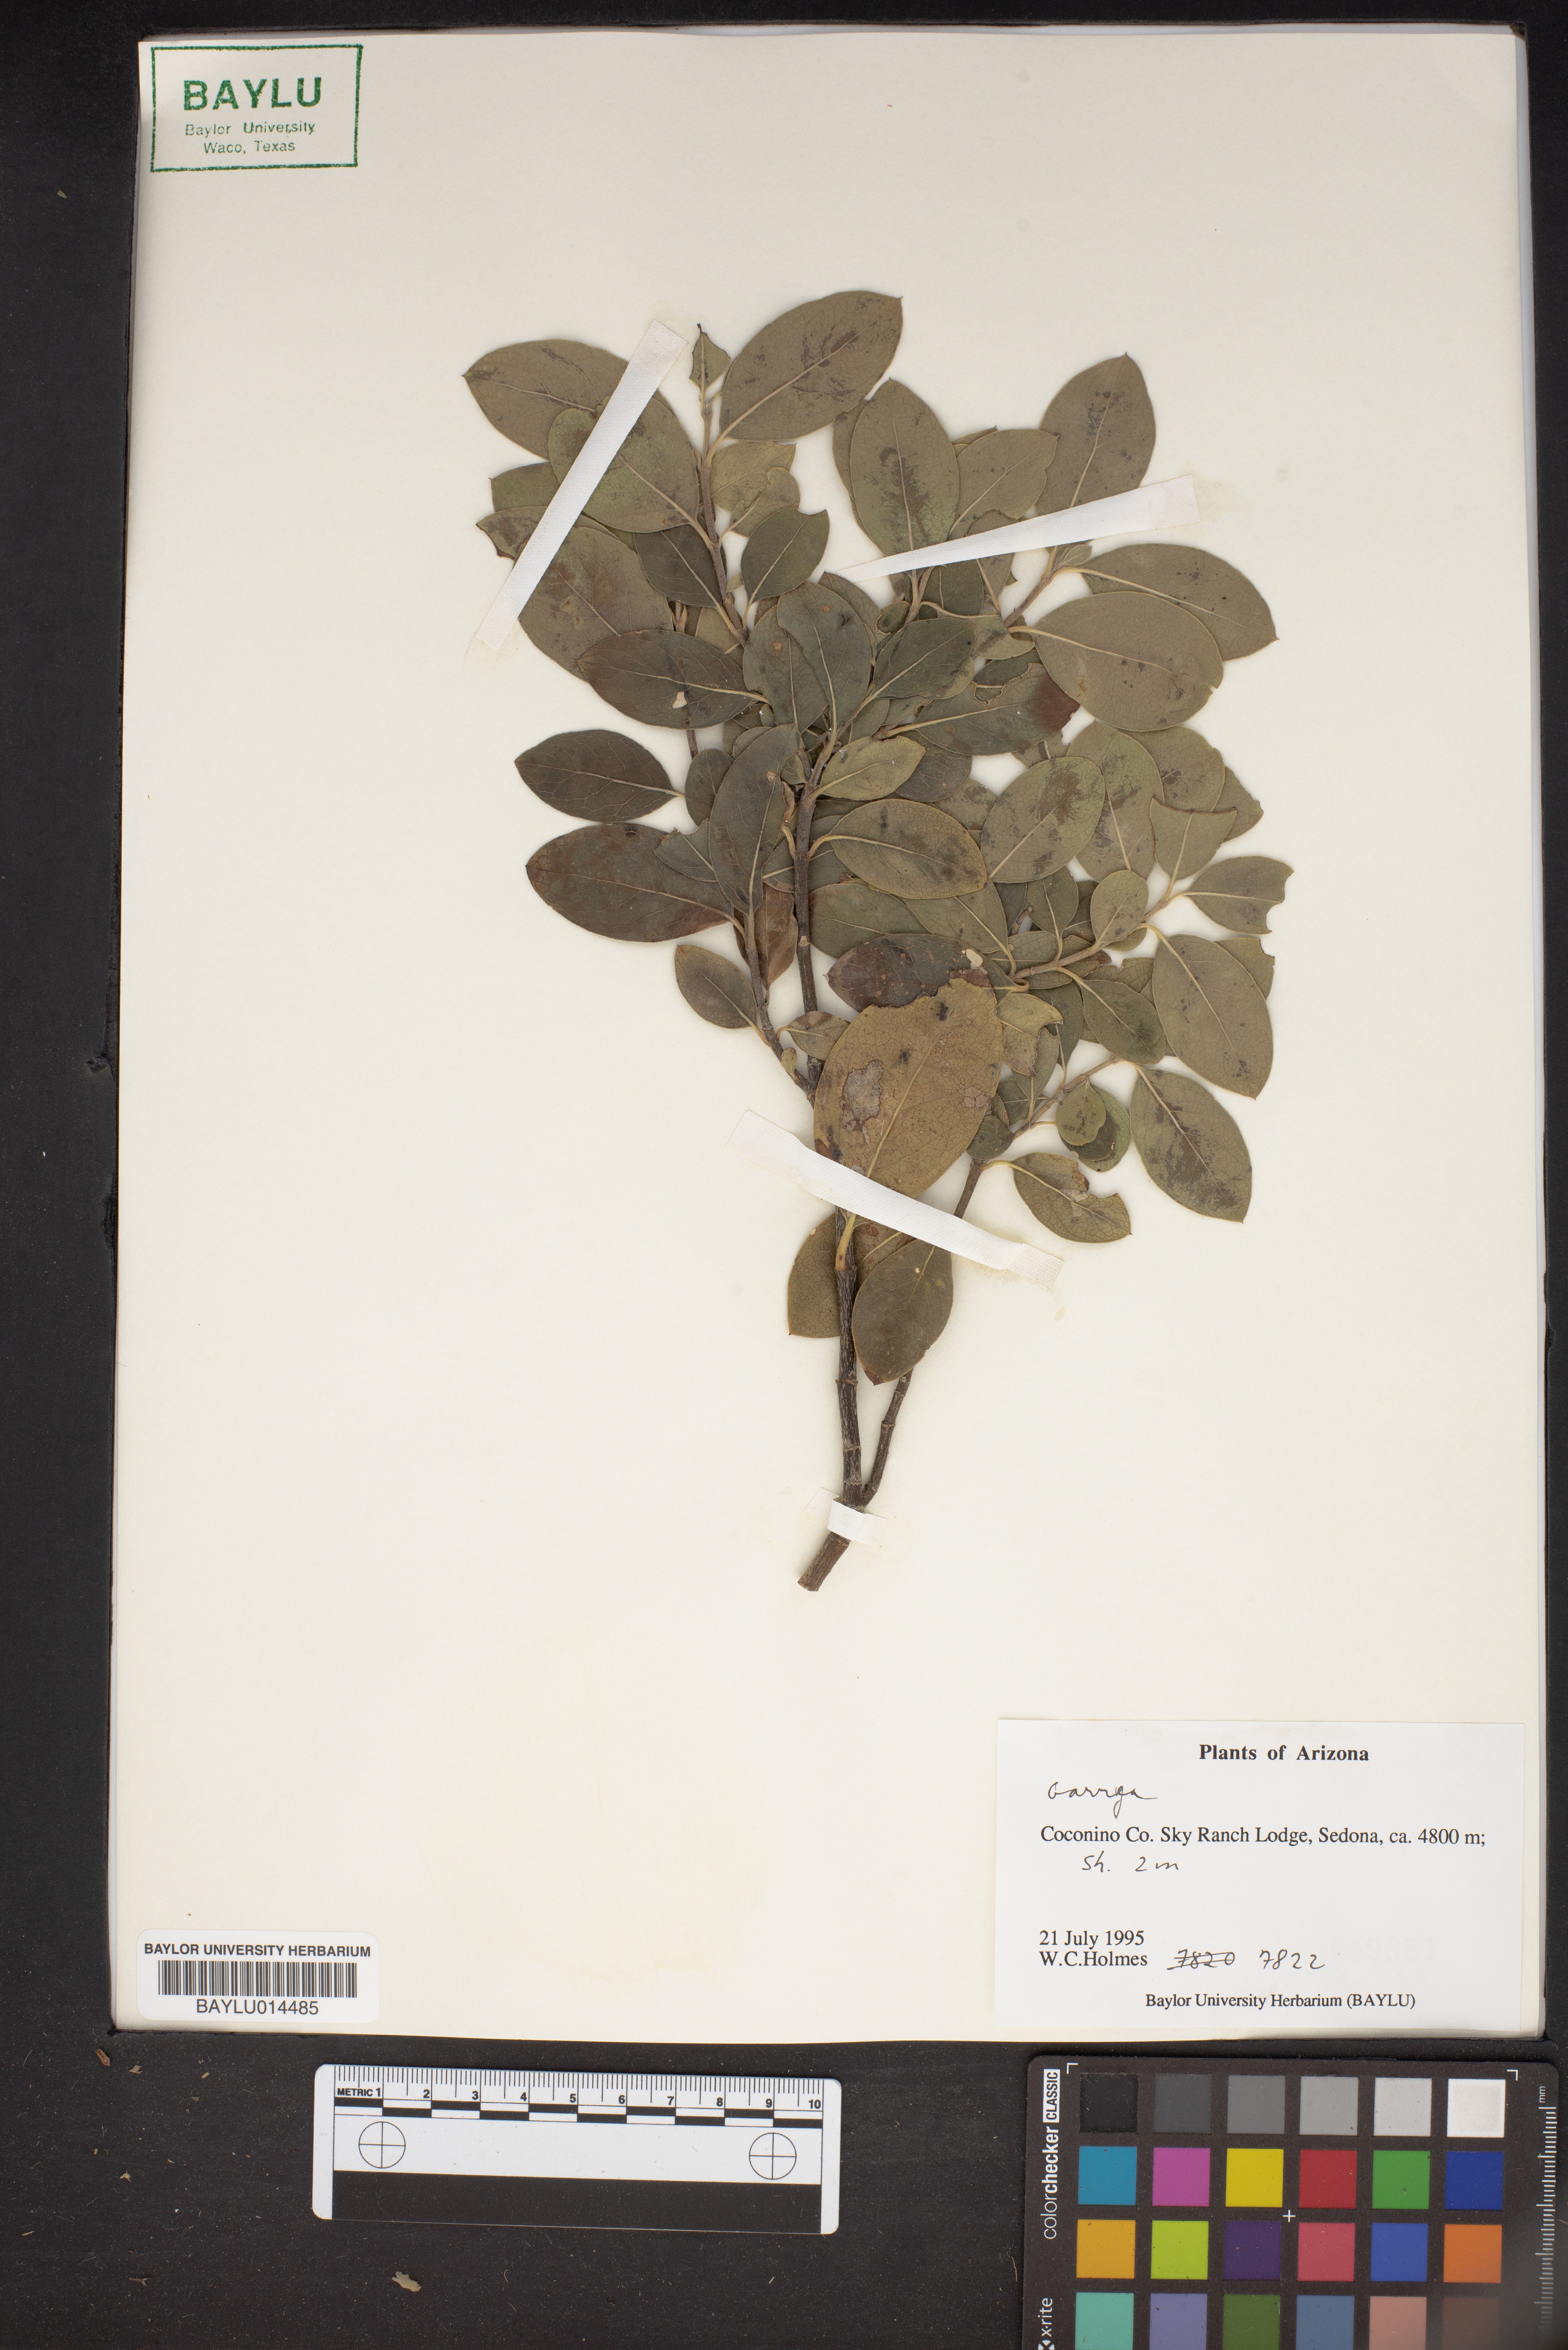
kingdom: Plantae
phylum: Tracheophyta
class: Magnoliopsida
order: Garryales
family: Garryaceae
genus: Garrya
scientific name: Garrya
